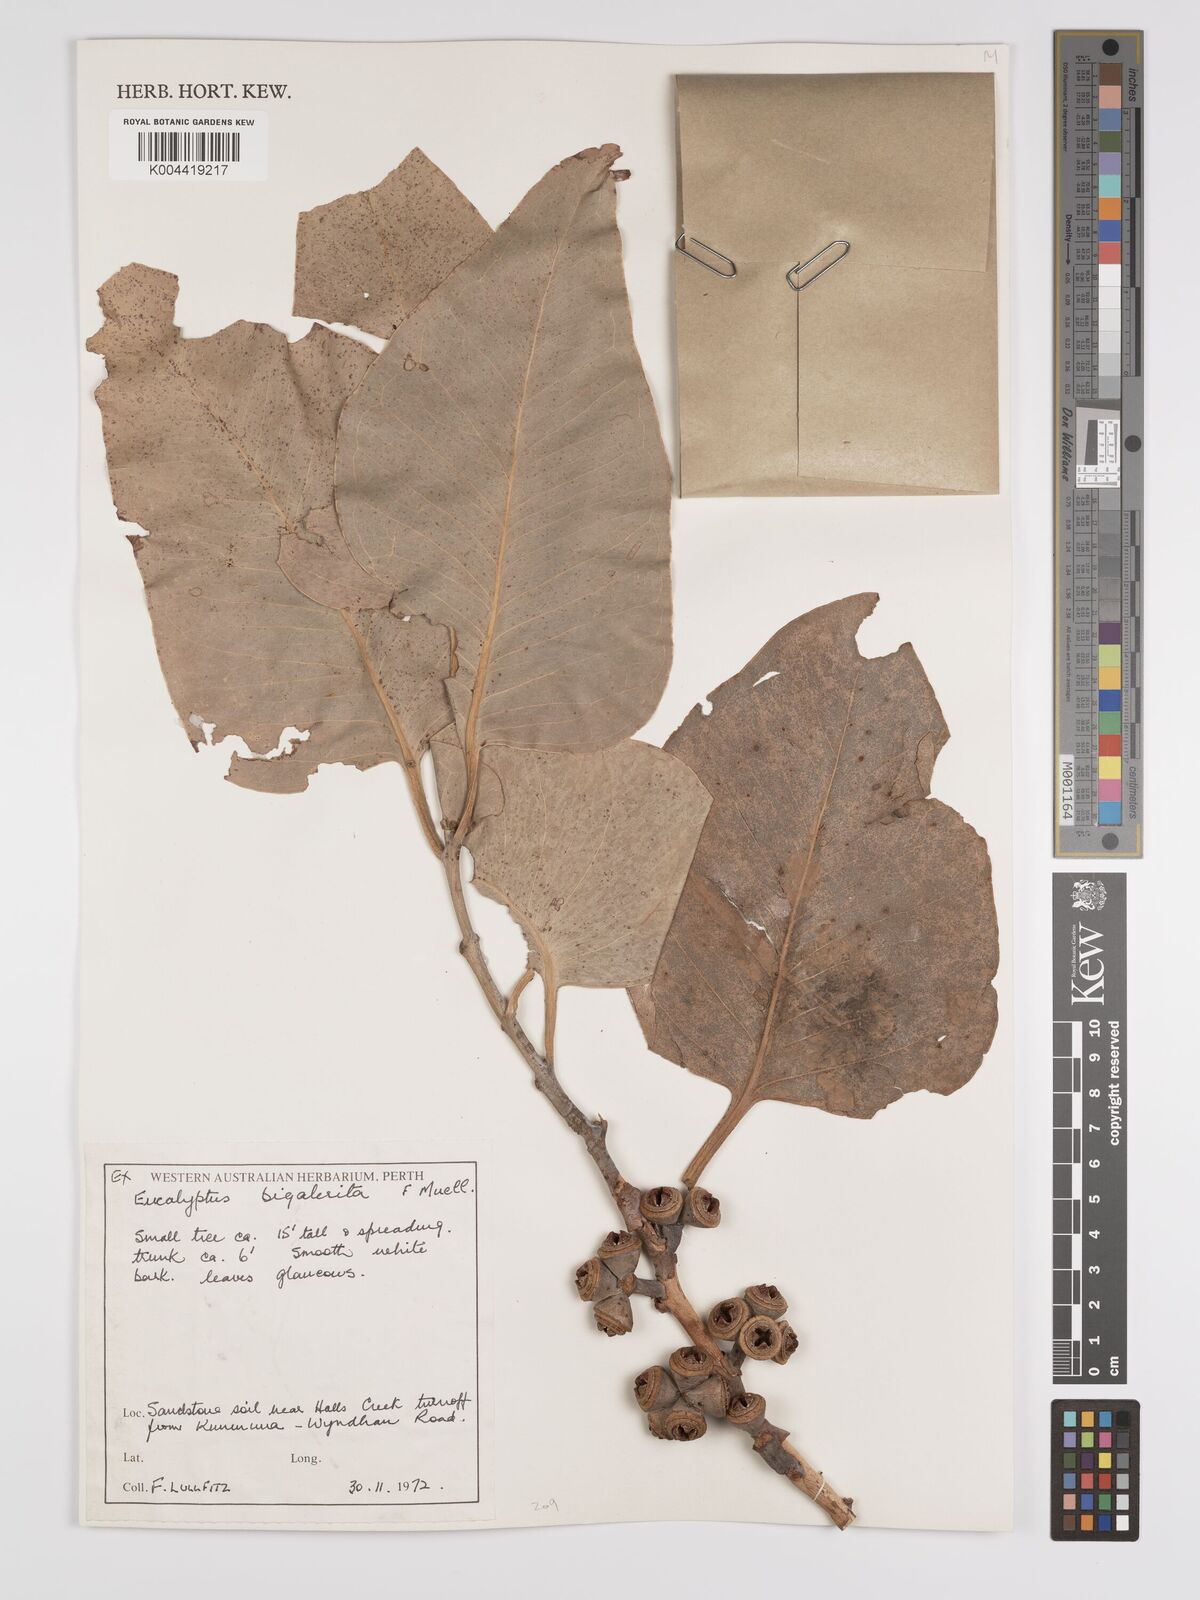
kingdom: Plantae
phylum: Tracheophyta
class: Magnoliopsida
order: Myrtales
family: Myrtaceae
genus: Eucalyptus
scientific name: Eucalyptus bigalerita
